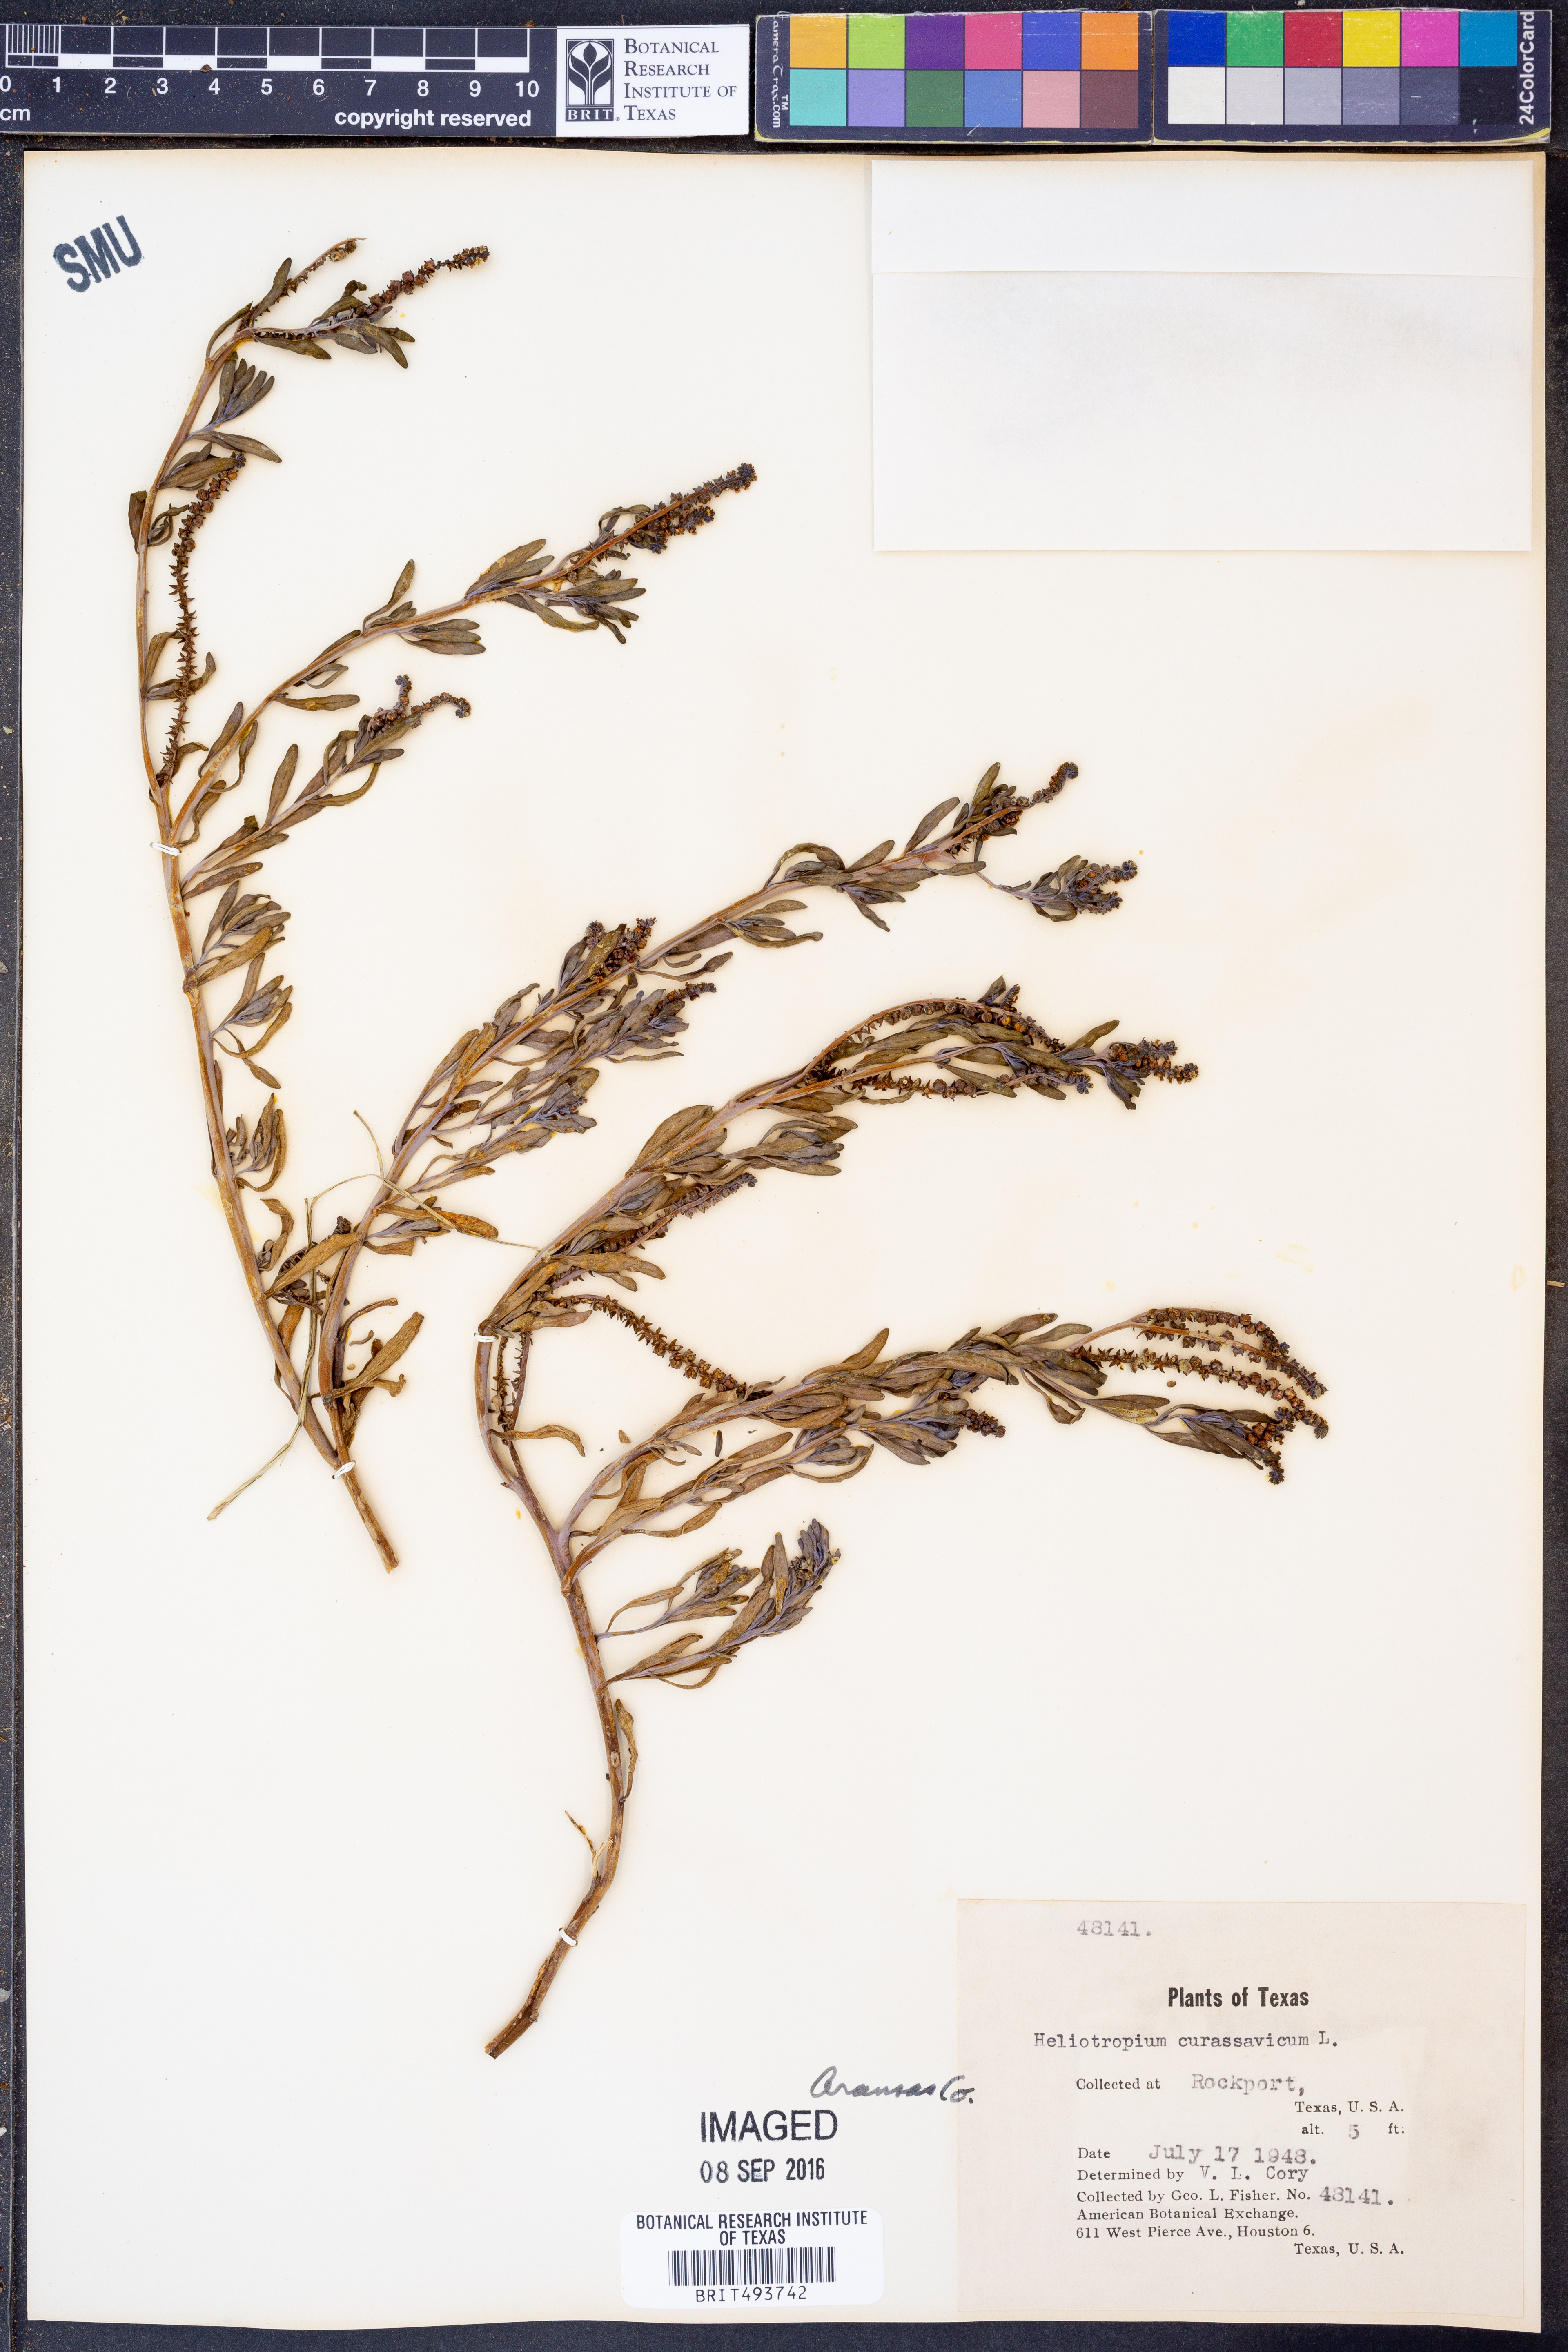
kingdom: Plantae
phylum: Tracheophyta
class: Magnoliopsida
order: Boraginales
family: Heliotropiaceae
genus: Heliotropium
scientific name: Heliotropium curassavicum
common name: Seaside heliotrope
